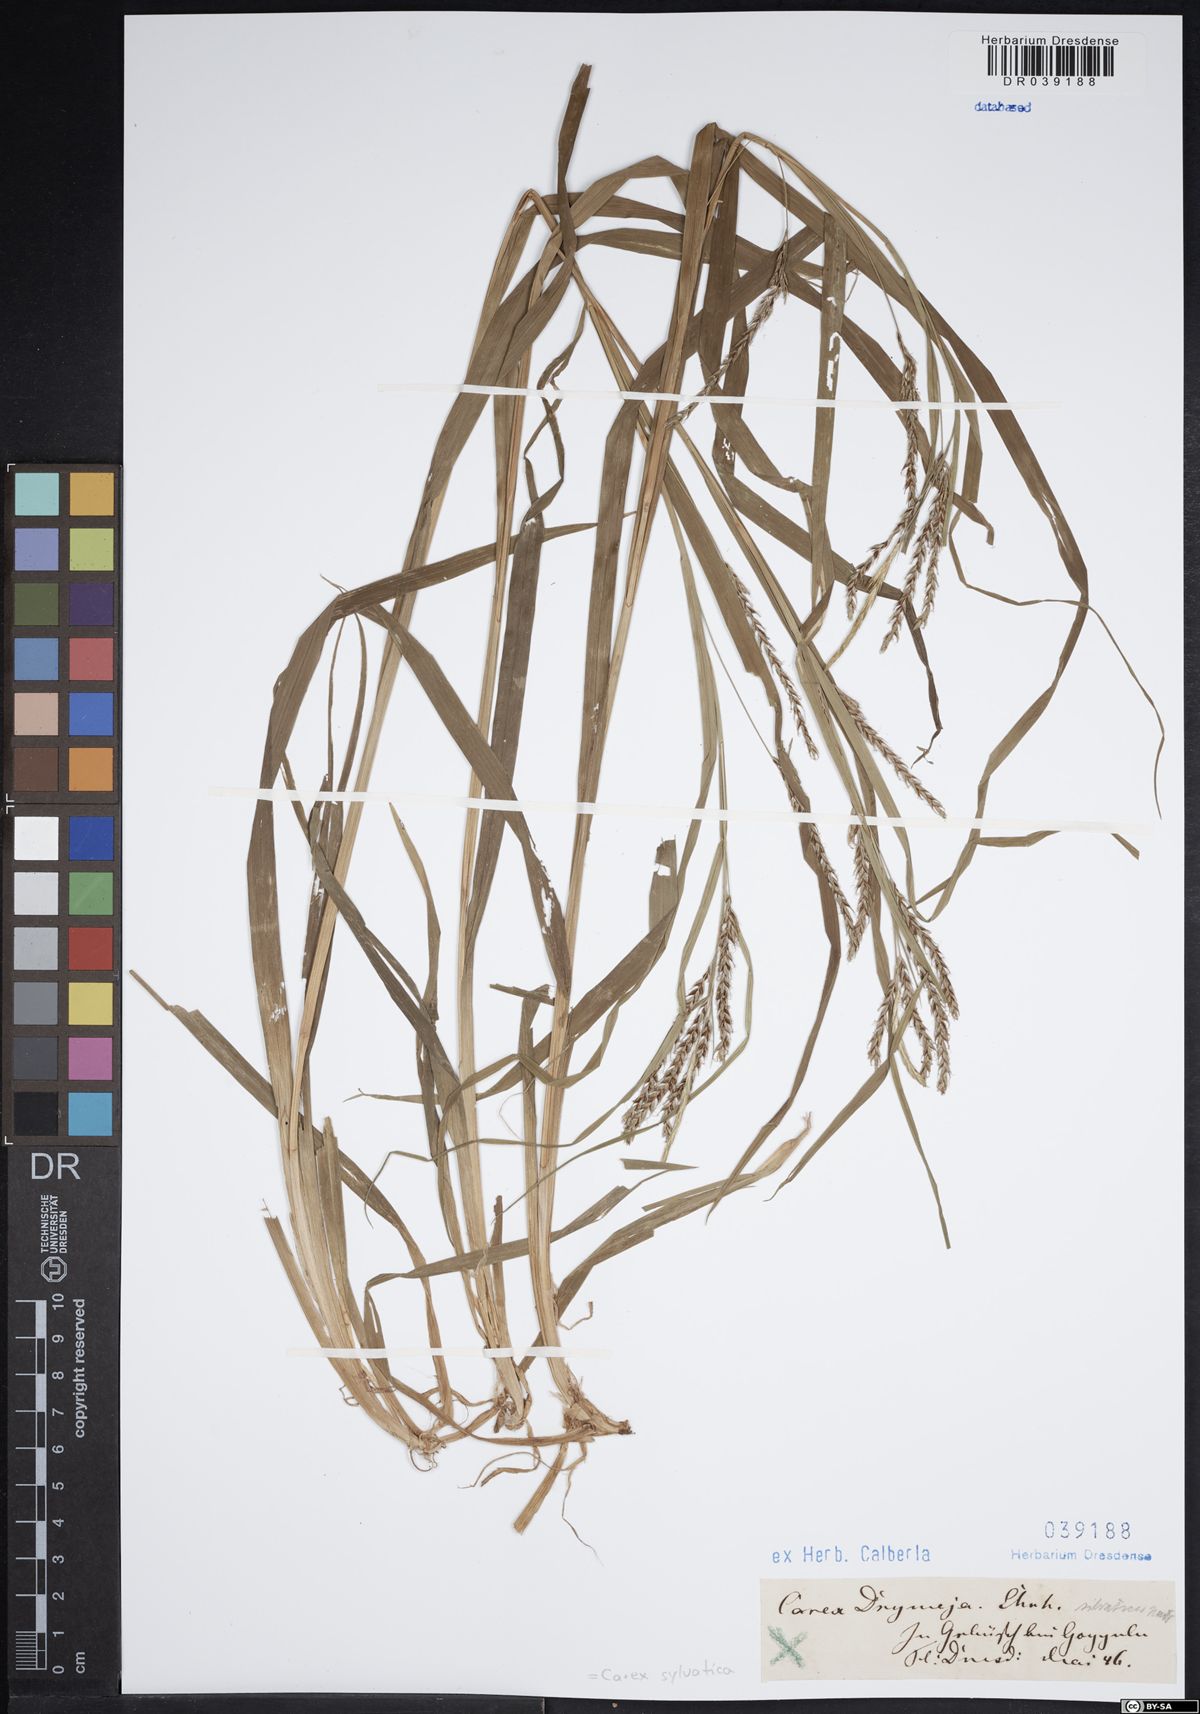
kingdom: Plantae
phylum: Tracheophyta
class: Liliopsida
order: Poales
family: Cyperaceae
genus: Carex
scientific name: Carex sylvatica
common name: Wood-sedge
